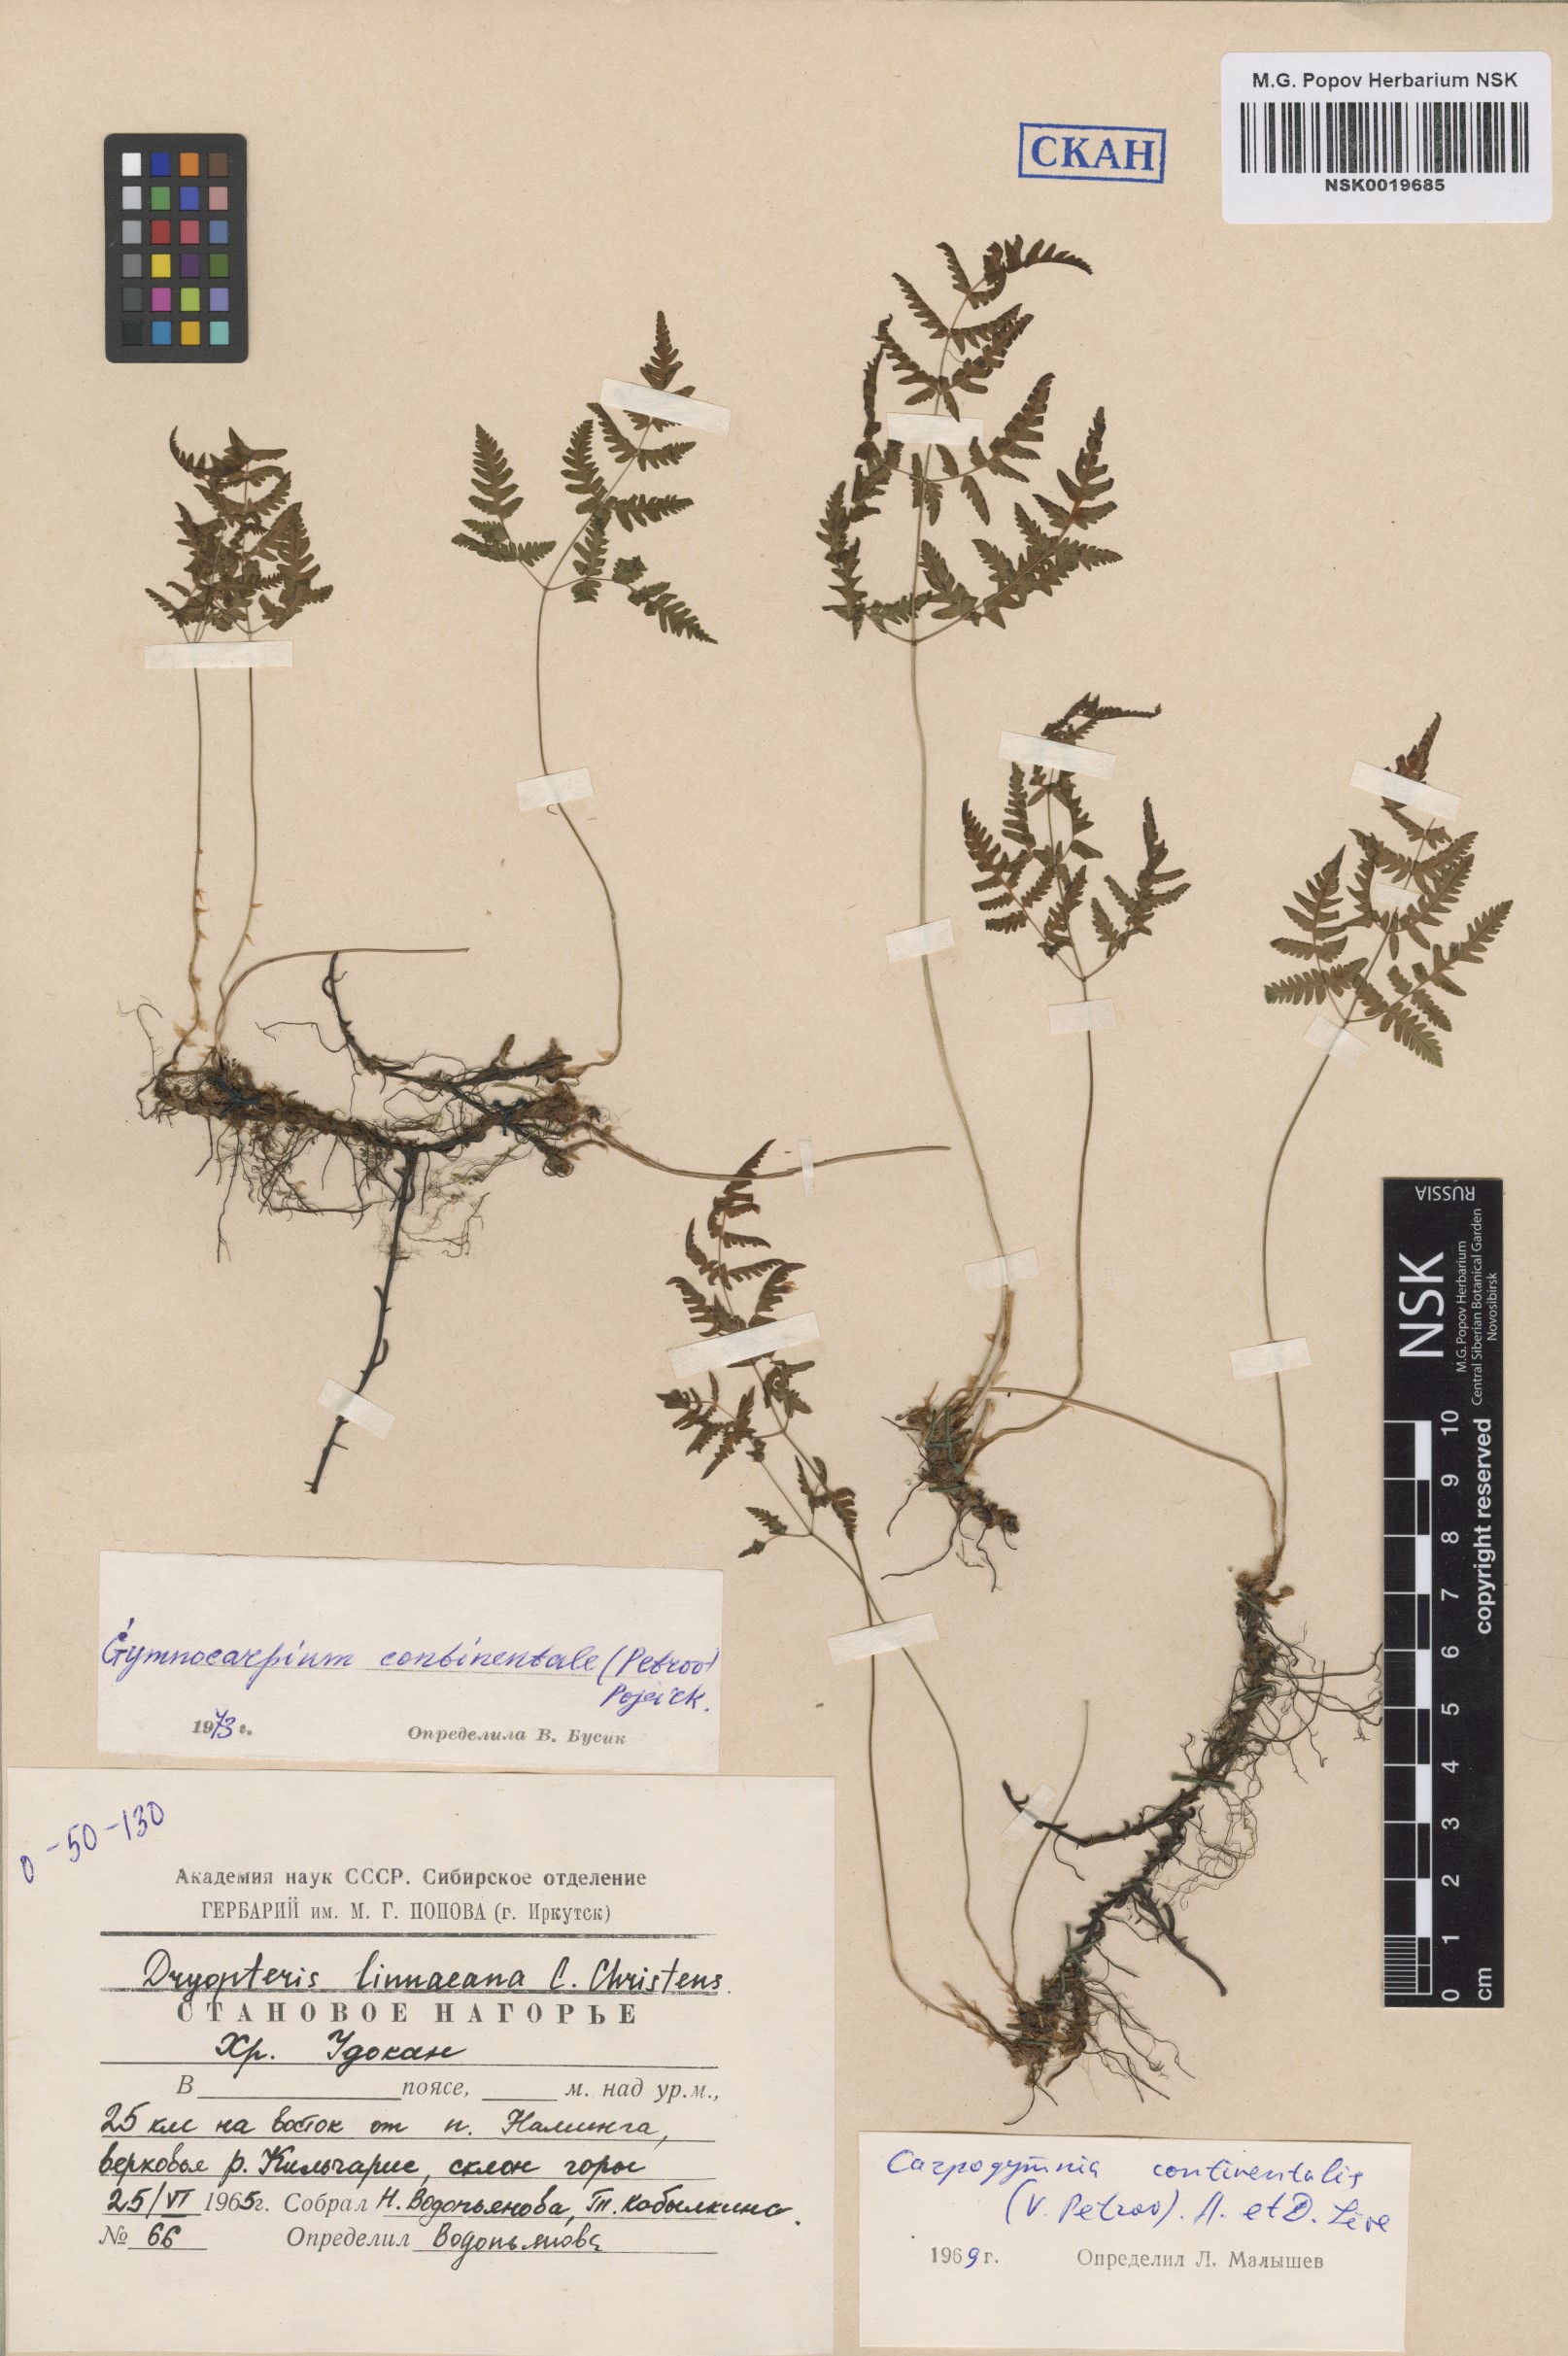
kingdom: Plantae
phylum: Tracheophyta
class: Polypodiopsida
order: Polypodiales
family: Cystopteridaceae
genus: Gymnocarpium
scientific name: Gymnocarpium continentale
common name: Asian oak fern
